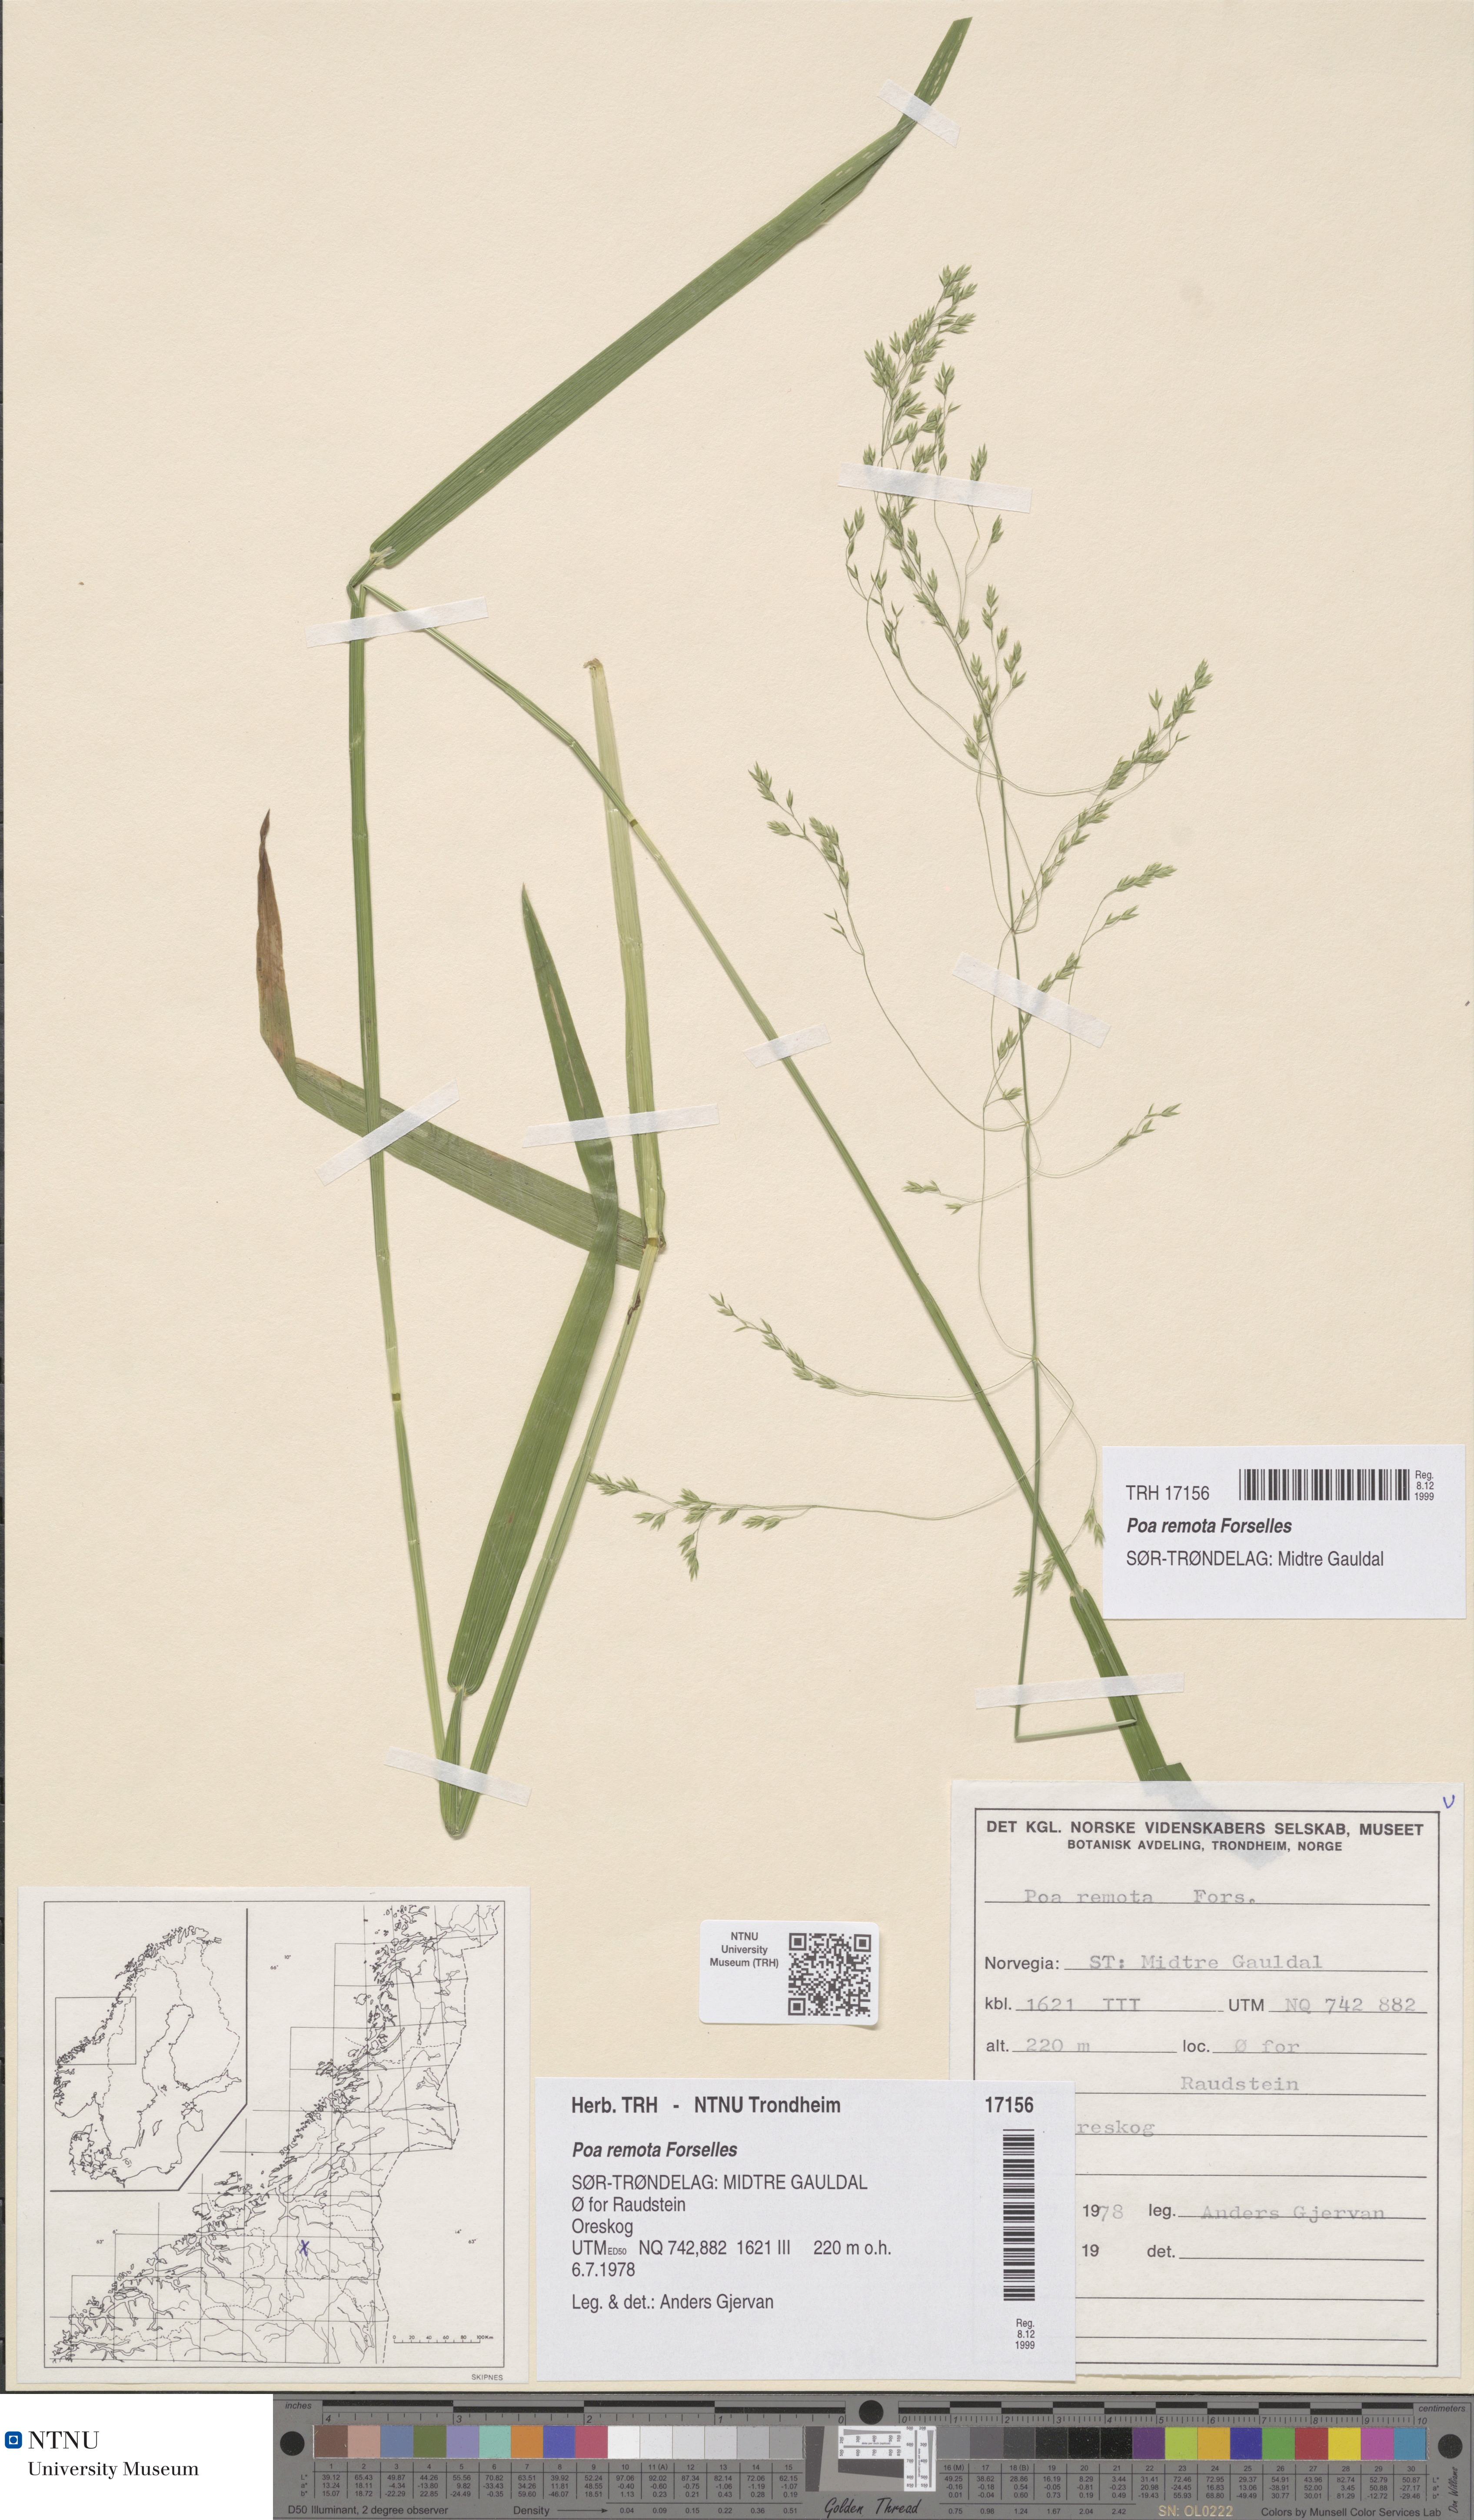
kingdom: Plantae
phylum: Tracheophyta
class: Liliopsida
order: Poales
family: Poaceae
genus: Poa
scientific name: Poa remota
